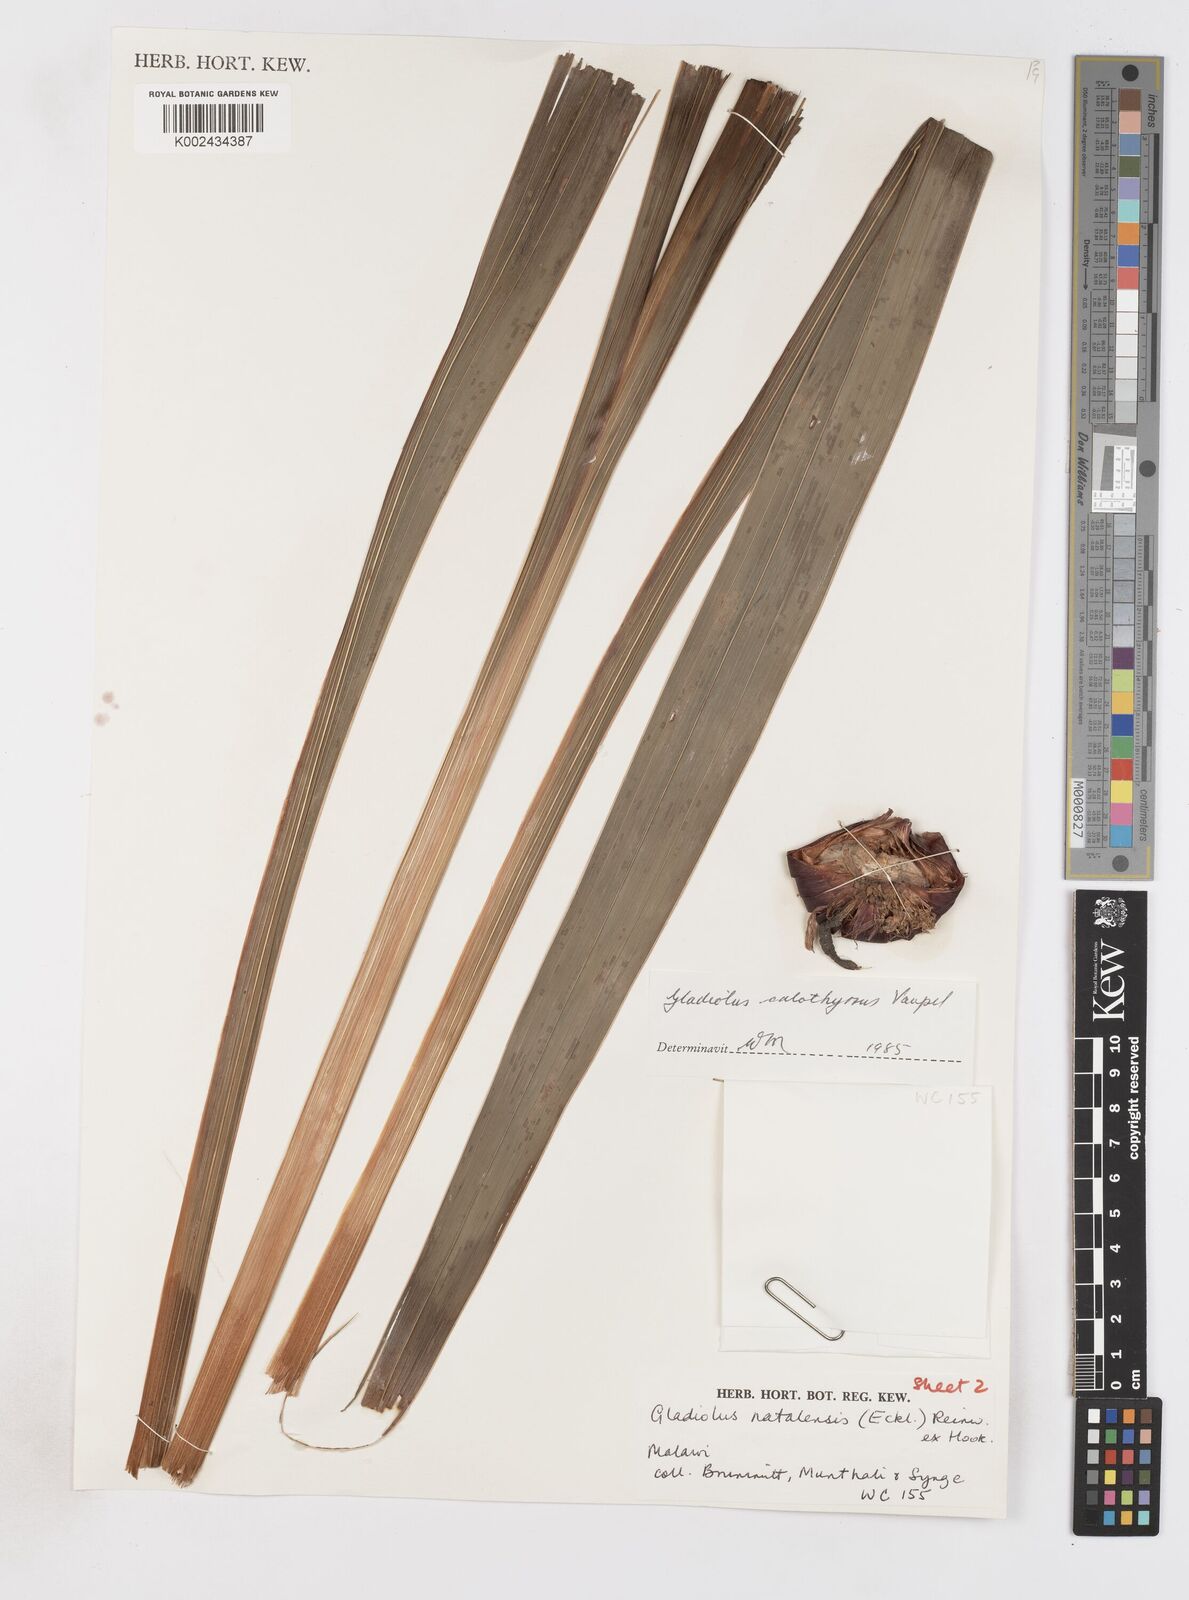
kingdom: Plantae
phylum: Tracheophyta
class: Liliopsida
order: Asparagales
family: Iridaceae
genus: Gladiolus
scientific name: Gladiolus dalenii
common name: Cornflag
